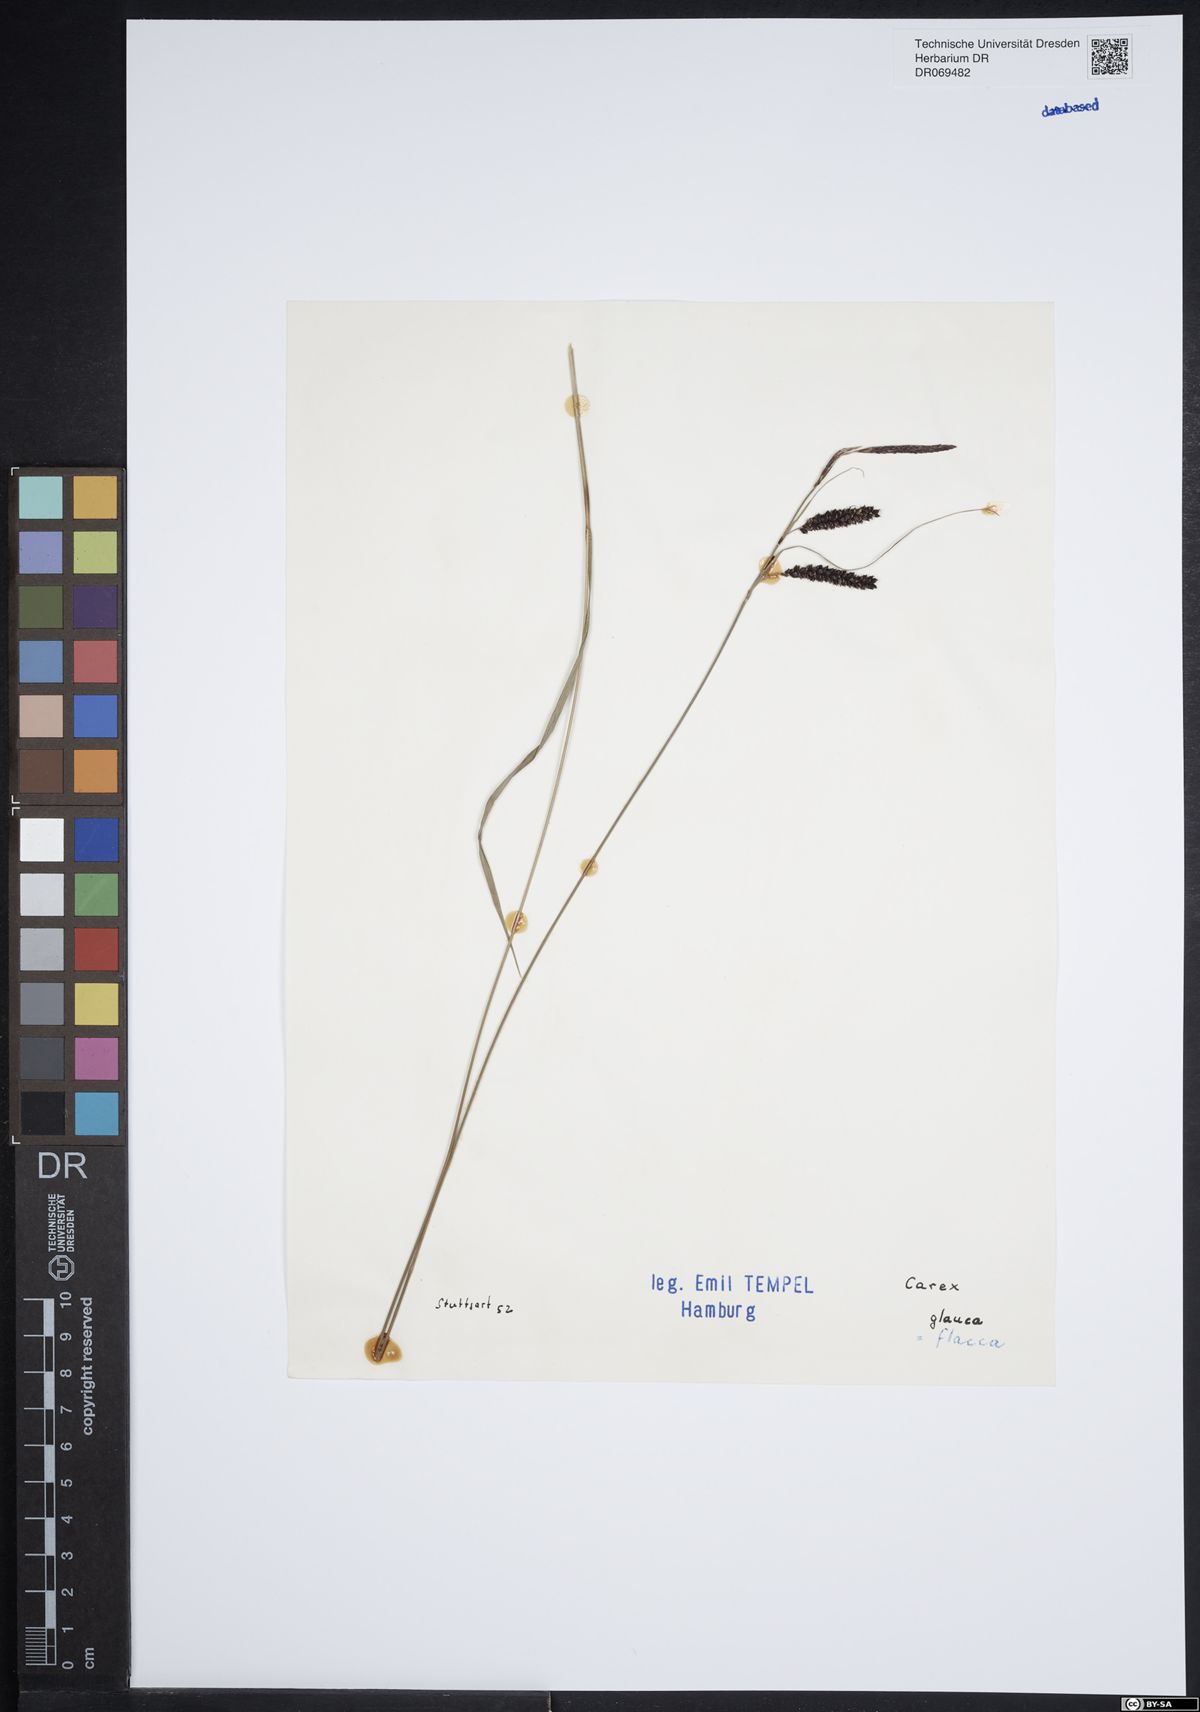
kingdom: Plantae
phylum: Tracheophyta
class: Liliopsida
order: Poales
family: Cyperaceae
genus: Carex
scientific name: Carex flacca
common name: Glaucous sedge
